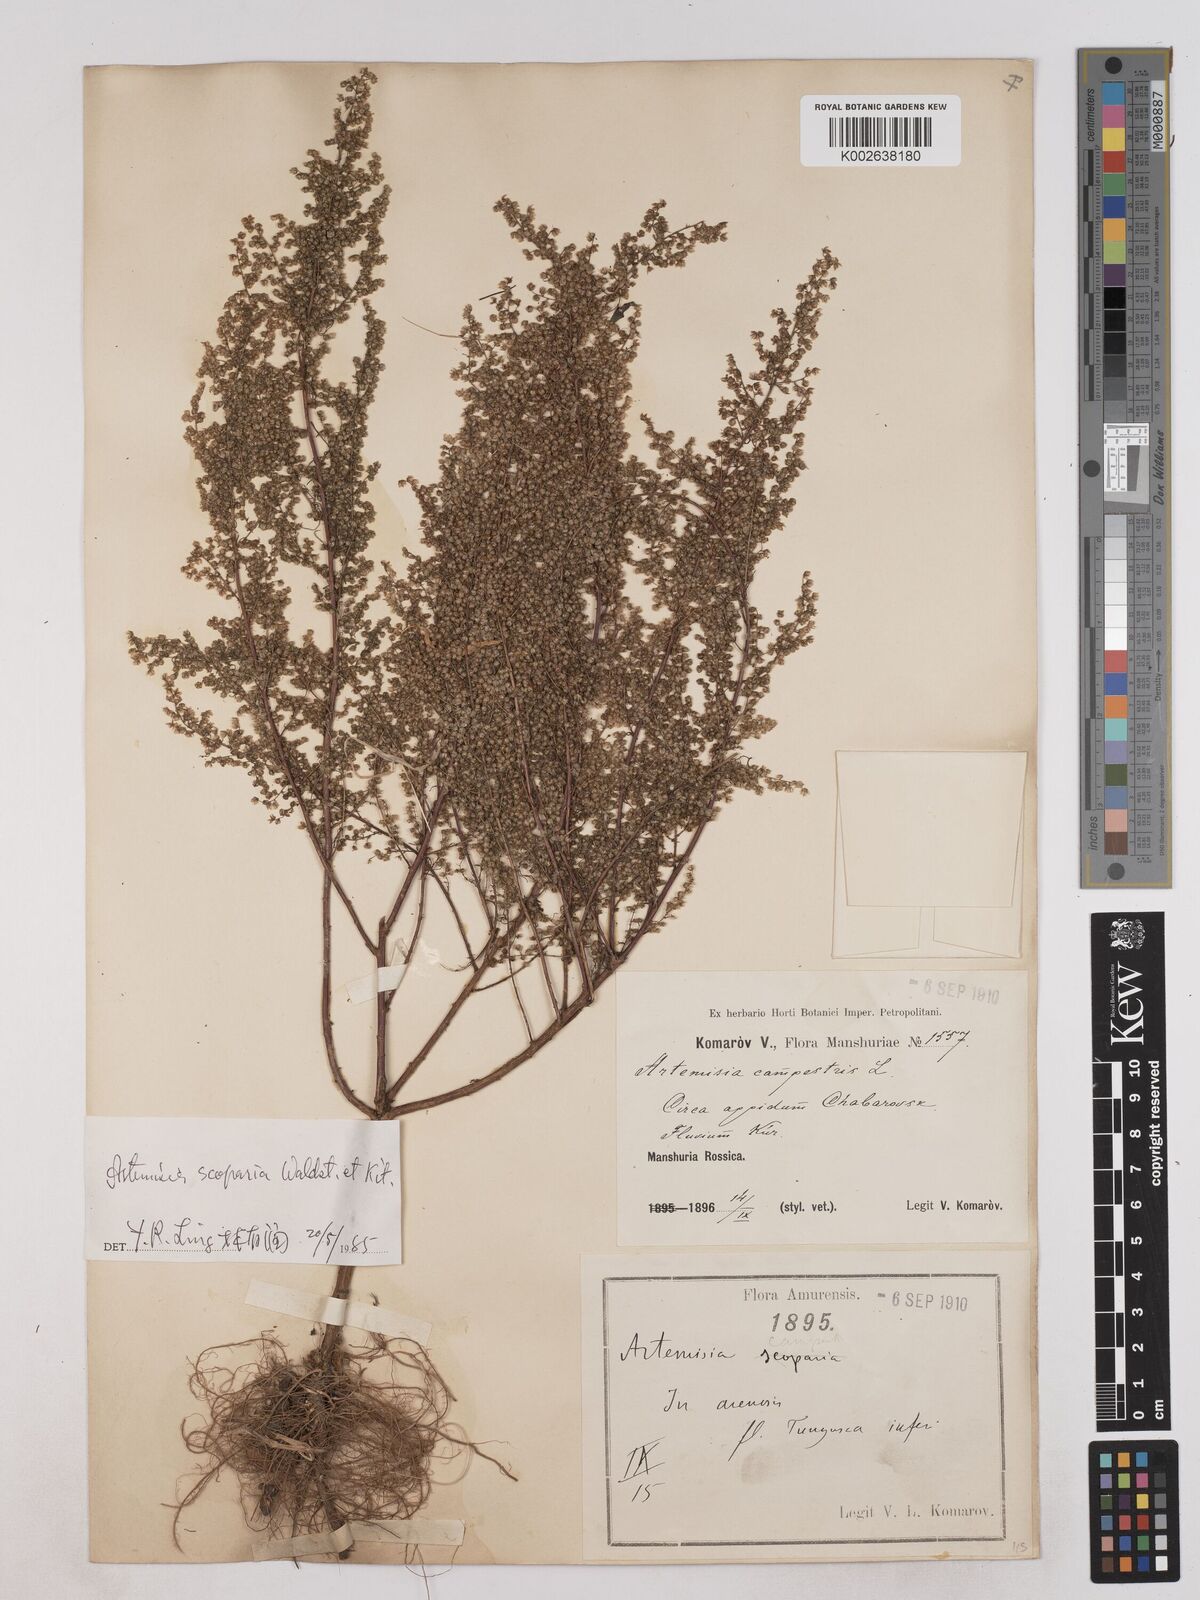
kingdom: Plantae
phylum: Tracheophyta
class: Magnoliopsida
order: Asterales
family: Asteraceae
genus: Artemisia
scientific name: Artemisia scoparia
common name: Redstem wormwood
